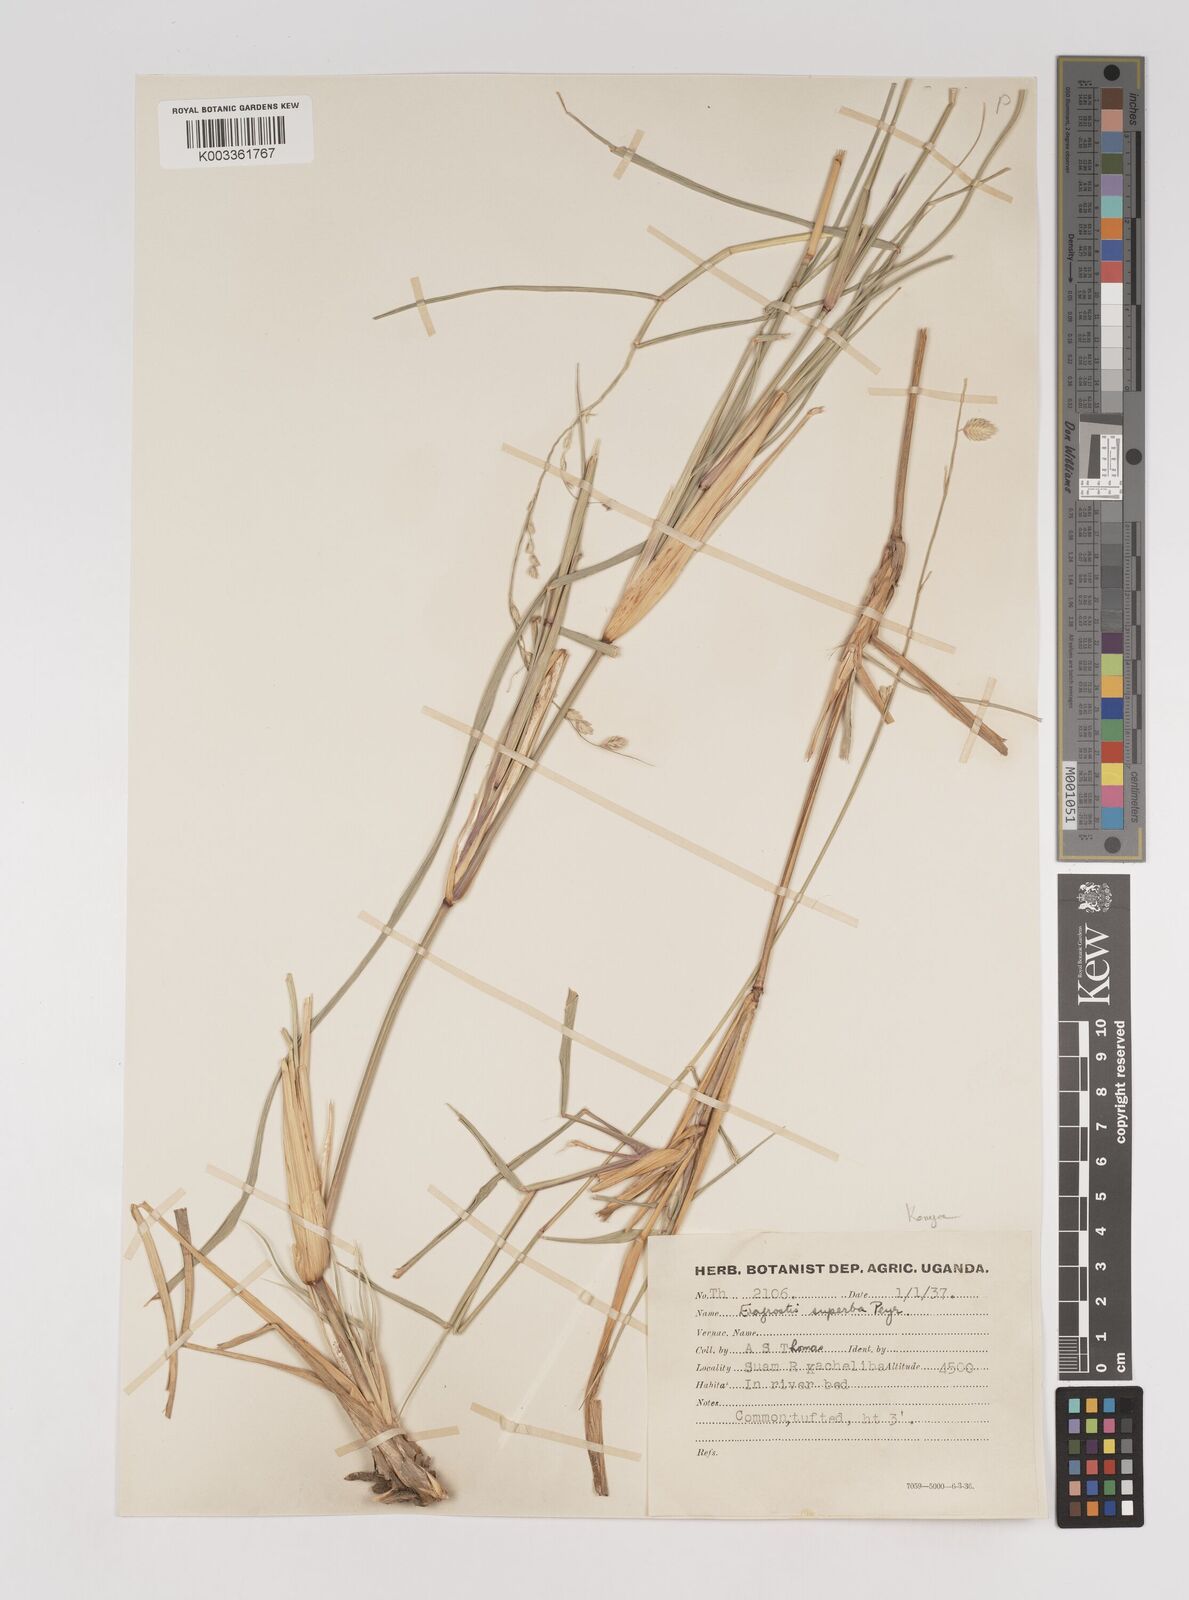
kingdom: Plantae
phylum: Tracheophyta
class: Liliopsida
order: Poales
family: Poaceae
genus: Eragrostis
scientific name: Eragrostis superba
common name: Wilman lovegrass
